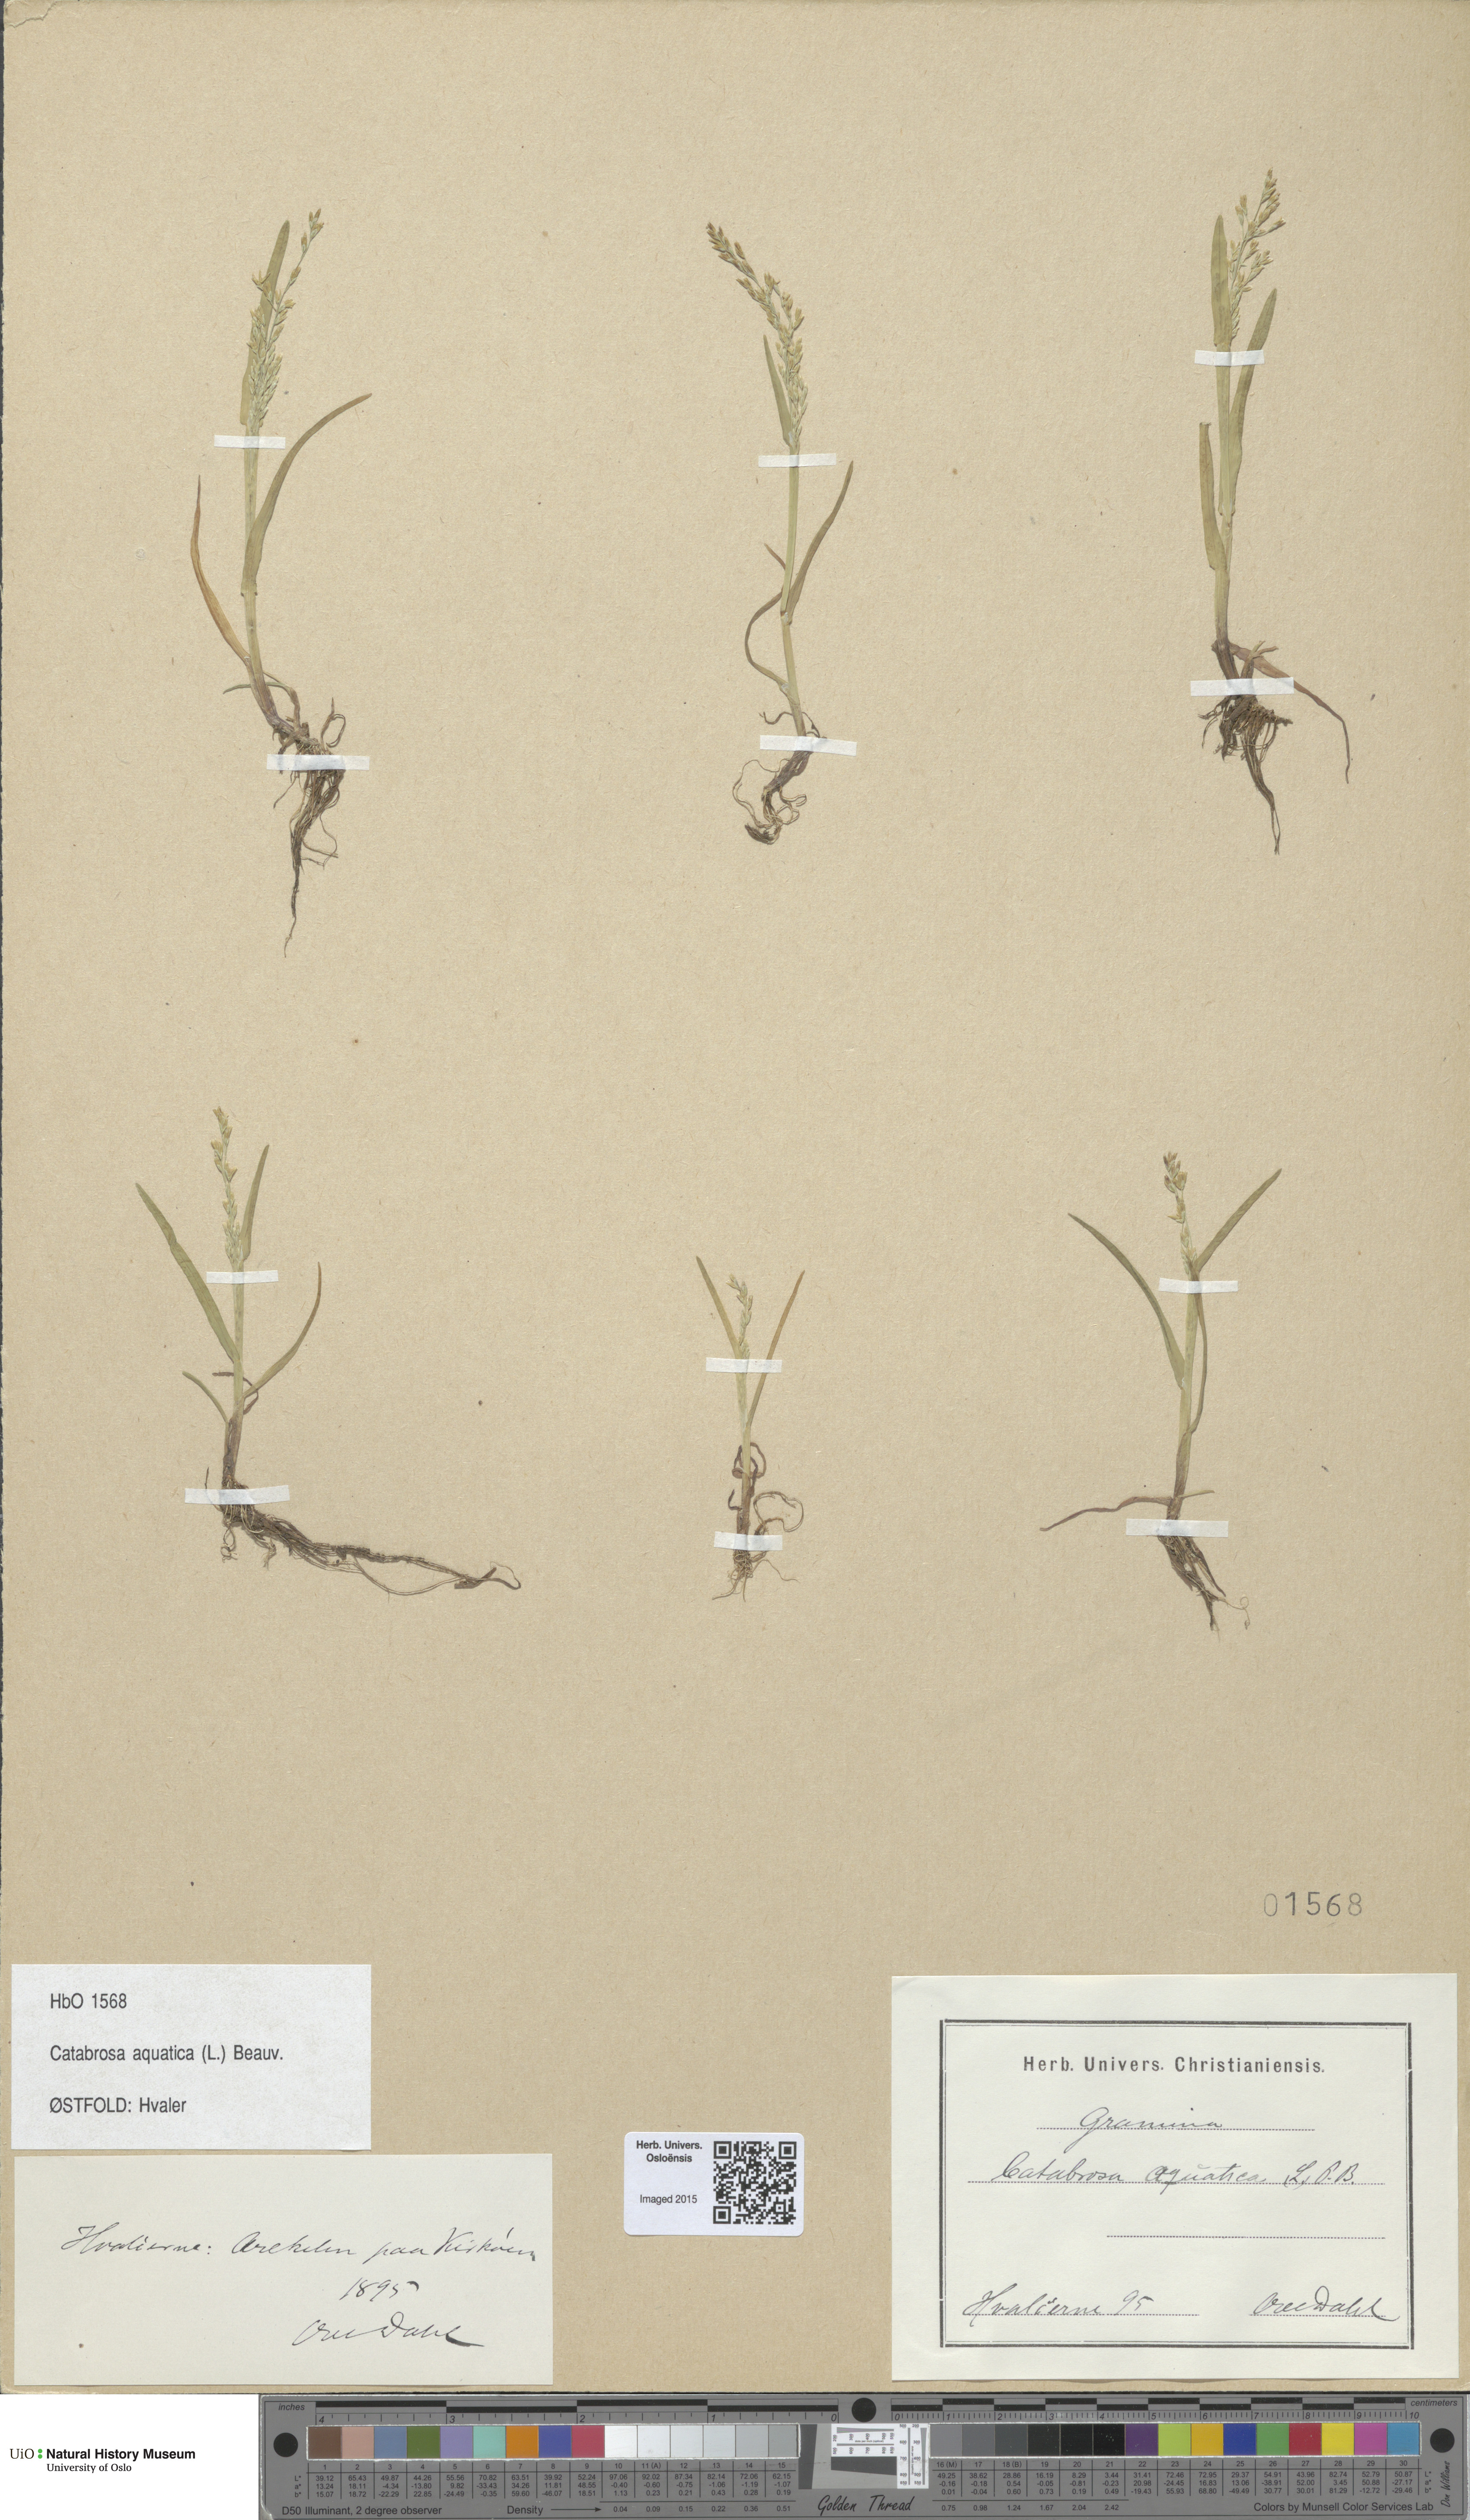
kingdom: Plantae
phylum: Tracheophyta
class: Liliopsida
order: Poales
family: Poaceae
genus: Catabrosa
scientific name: Catabrosa aquatica
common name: Whorl-grass
